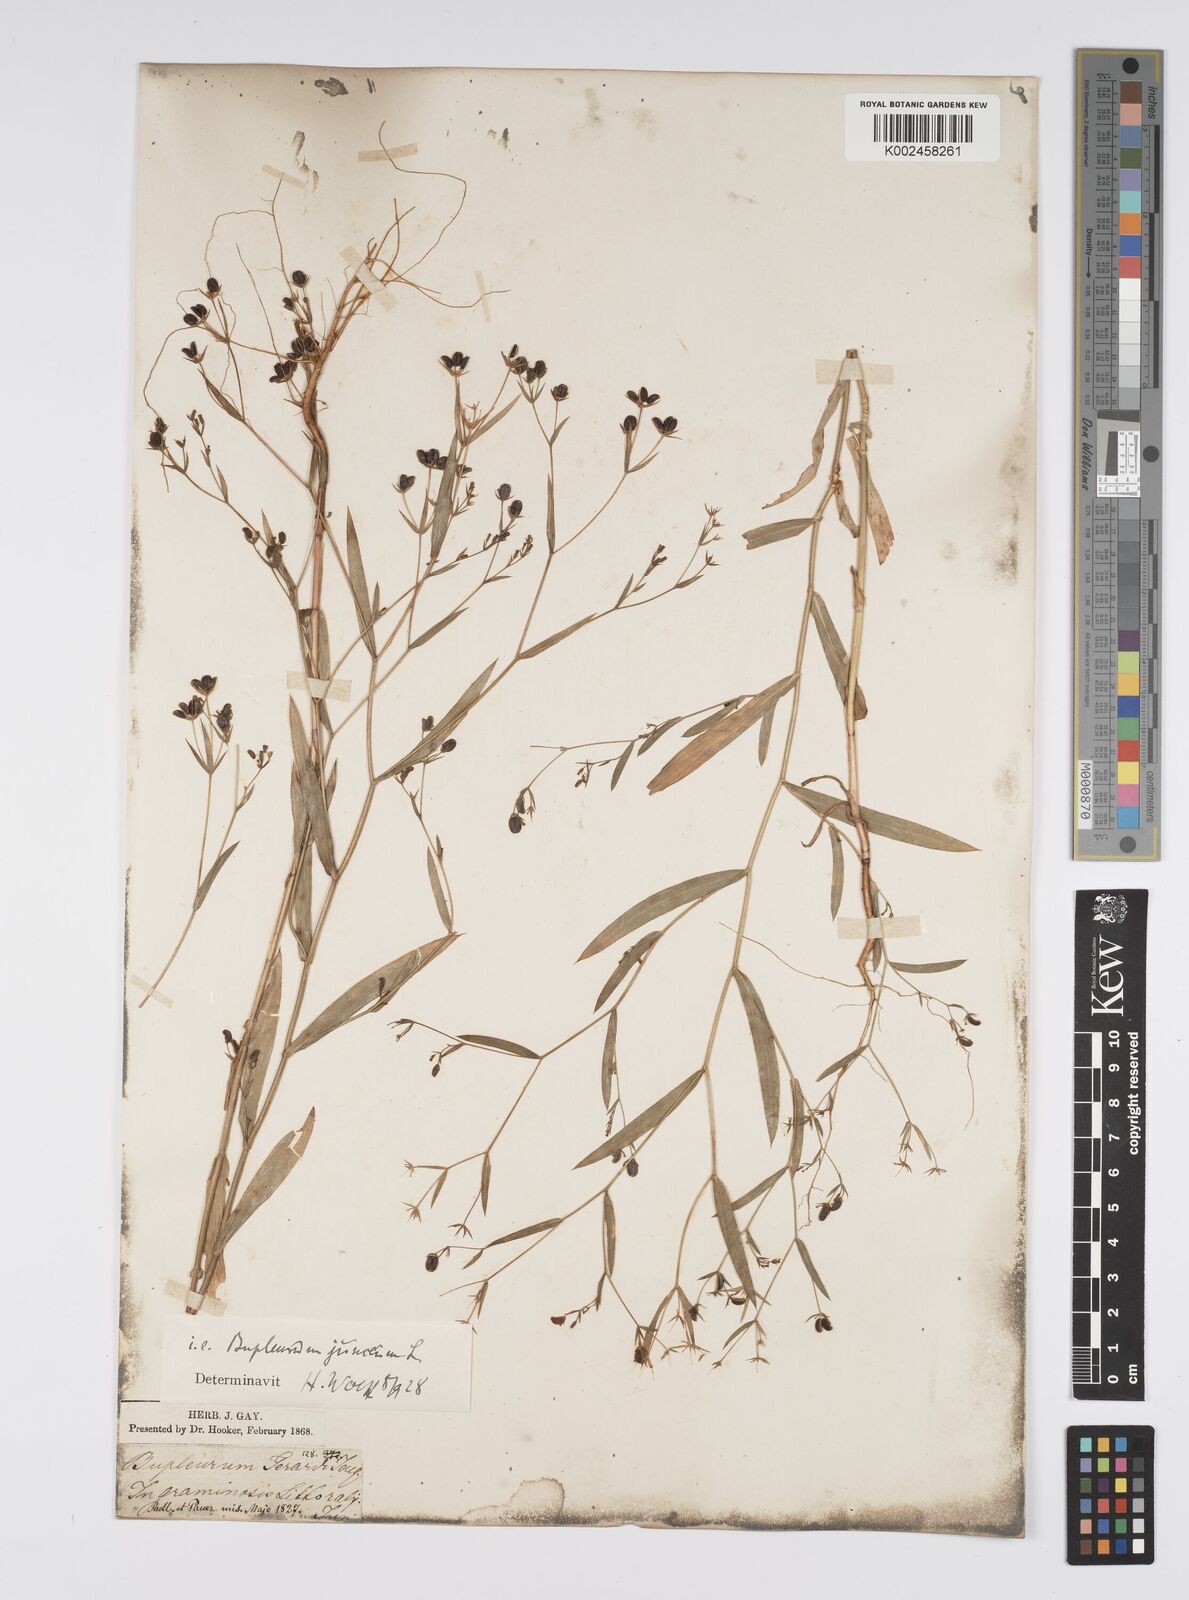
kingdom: Plantae
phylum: Tracheophyta
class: Magnoliopsida
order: Apiales
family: Apiaceae
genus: Bupleurum
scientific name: Bupleurum praealtum
